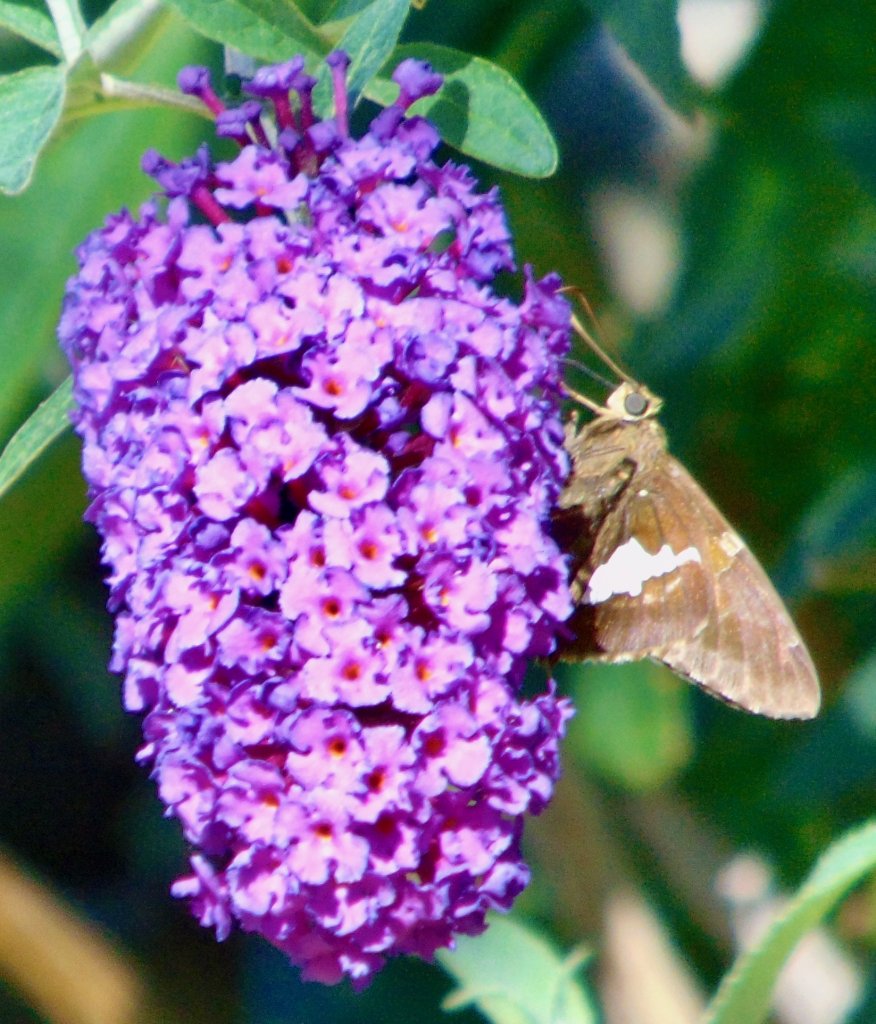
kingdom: Animalia
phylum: Arthropoda
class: Insecta
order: Lepidoptera
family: Hesperiidae
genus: Epargyreus
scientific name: Epargyreus clarus
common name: Silver-spotted Skipper
